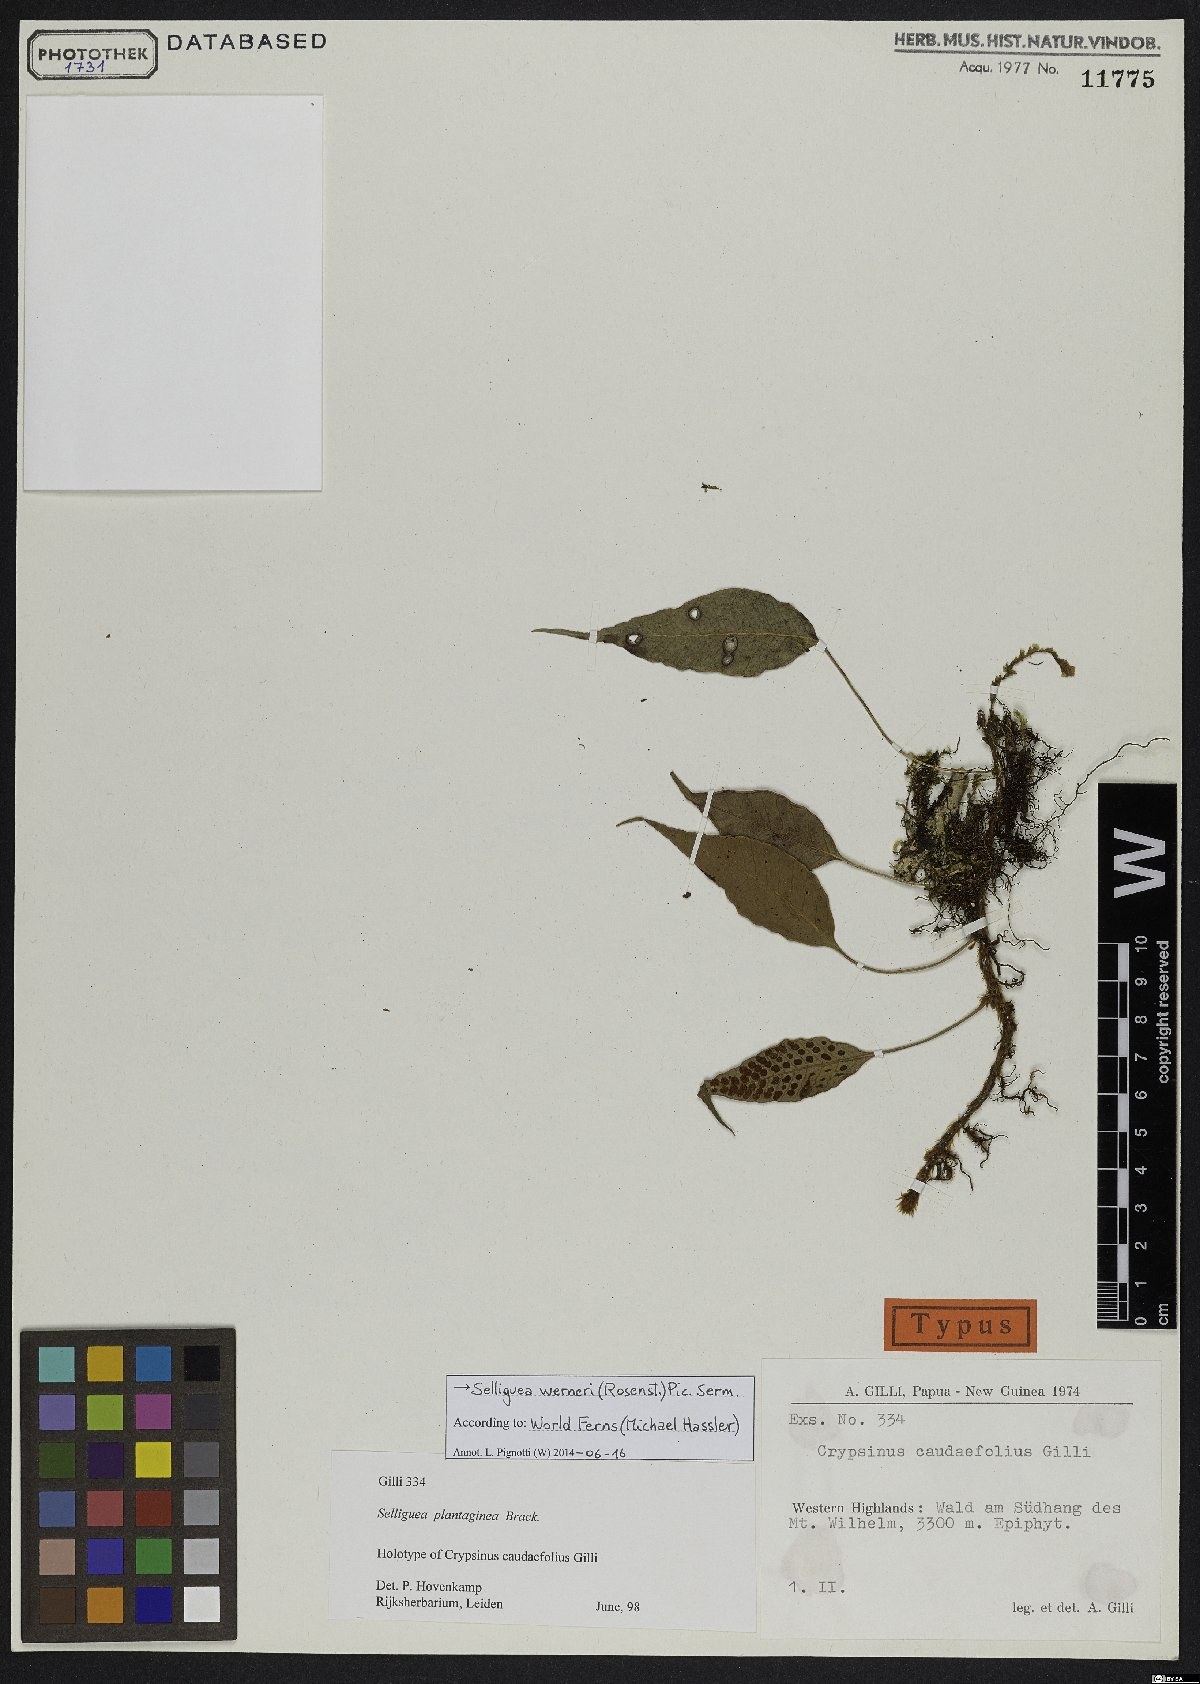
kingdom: Plantae
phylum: Tracheophyta
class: Polypodiopsida
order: Polypodiales
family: Polypodiaceae
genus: Selliguea
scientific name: Selliguea plantaginea
